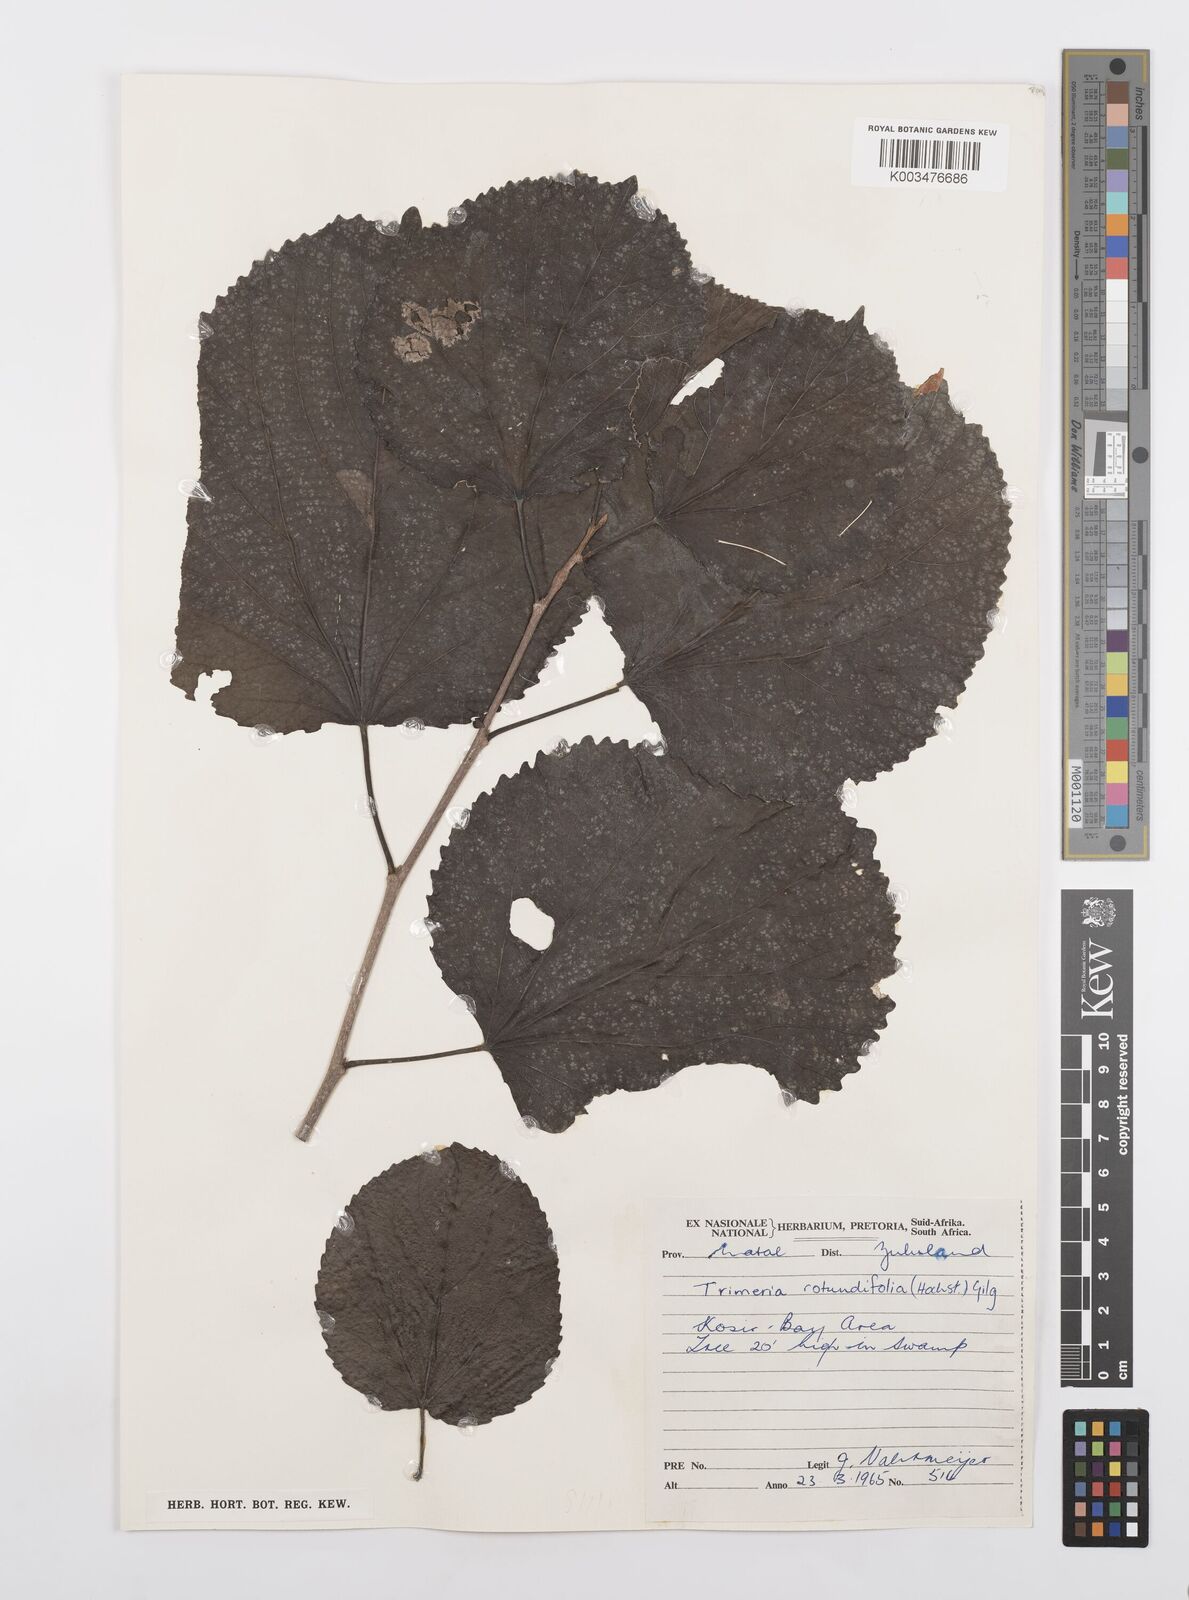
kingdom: Plantae
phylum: Tracheophyta
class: Magnoliopsida
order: Malpighiales
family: Salicaceae
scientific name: Salicaceae
